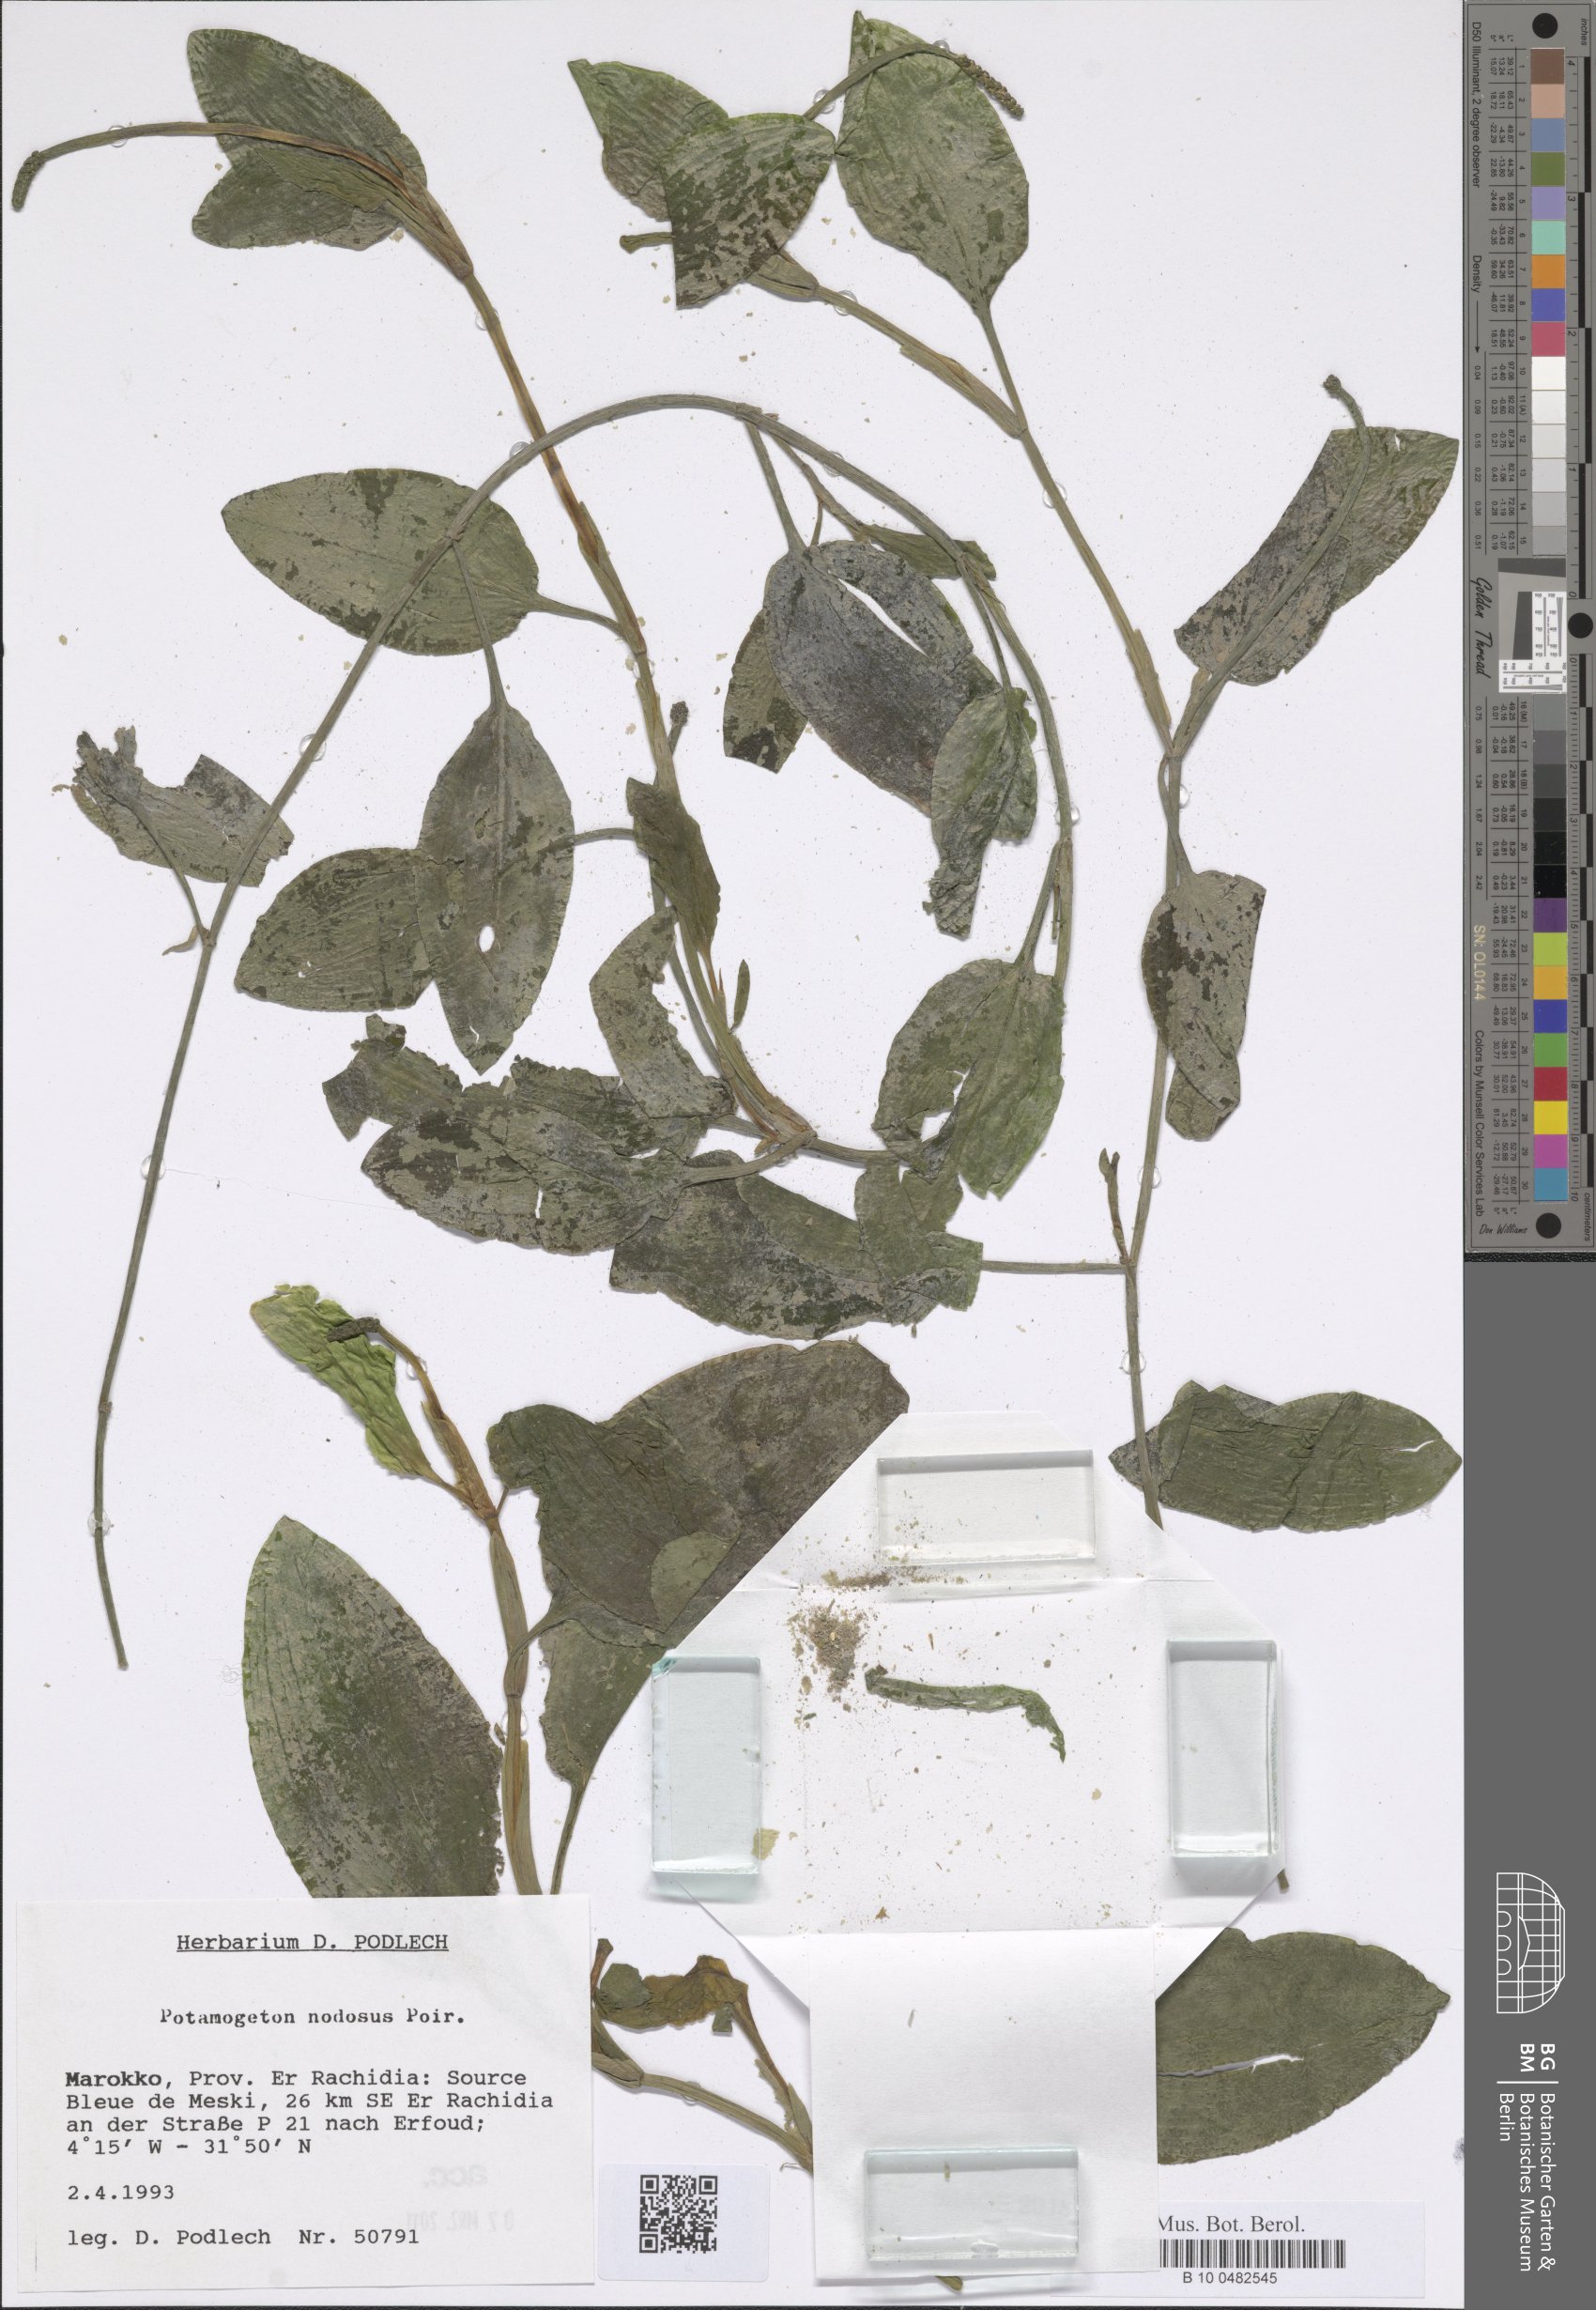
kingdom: Plantae
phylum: Tracheophyta
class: Liliopsida
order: Alismatales
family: Potamogetonaceae
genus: Potamogeton
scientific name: Potamogeton coloratus
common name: Fen pondweed
